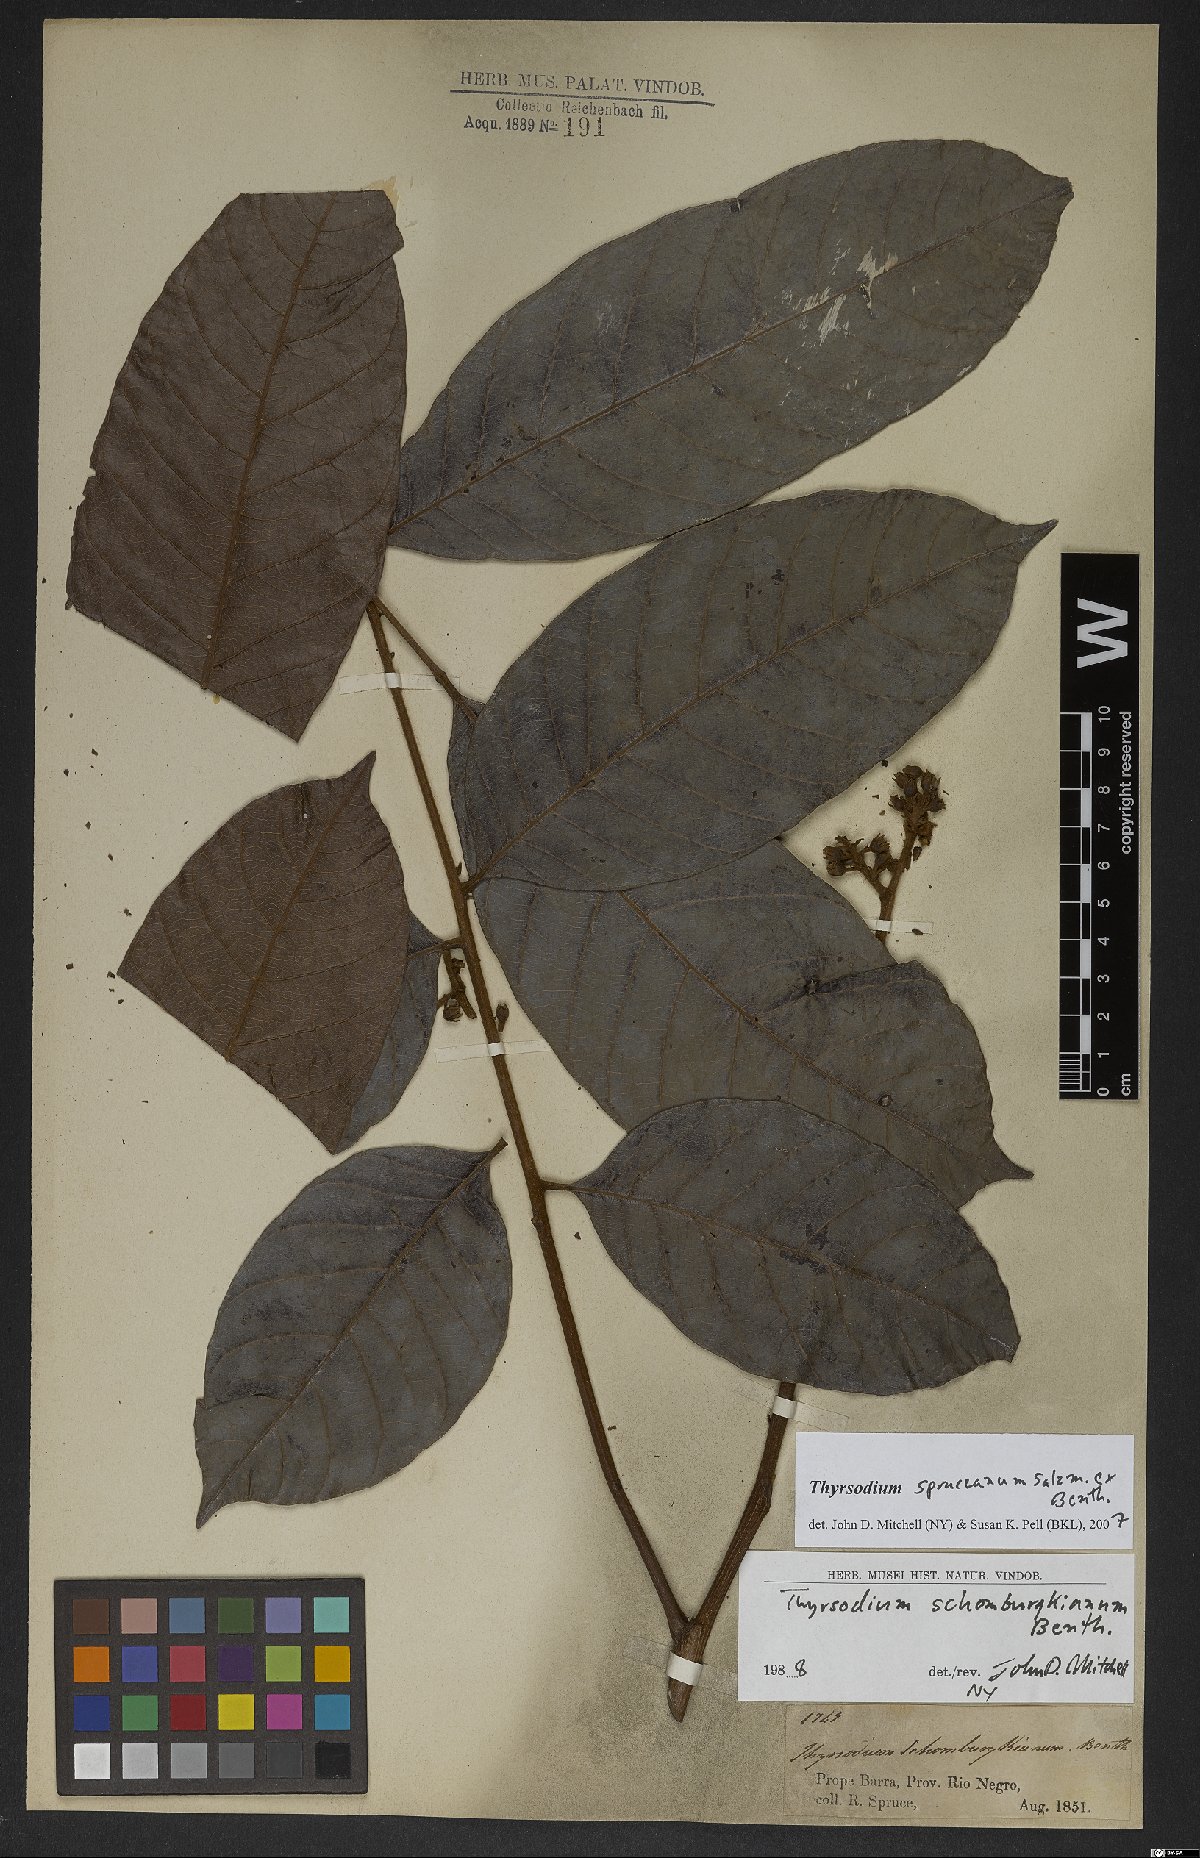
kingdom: Plantae
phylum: Tracheophyta
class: Magnoliopsida
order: Sapindales
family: Anacardiaceae
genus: Thyrsodium
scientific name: Thyrsodium spruceanum
